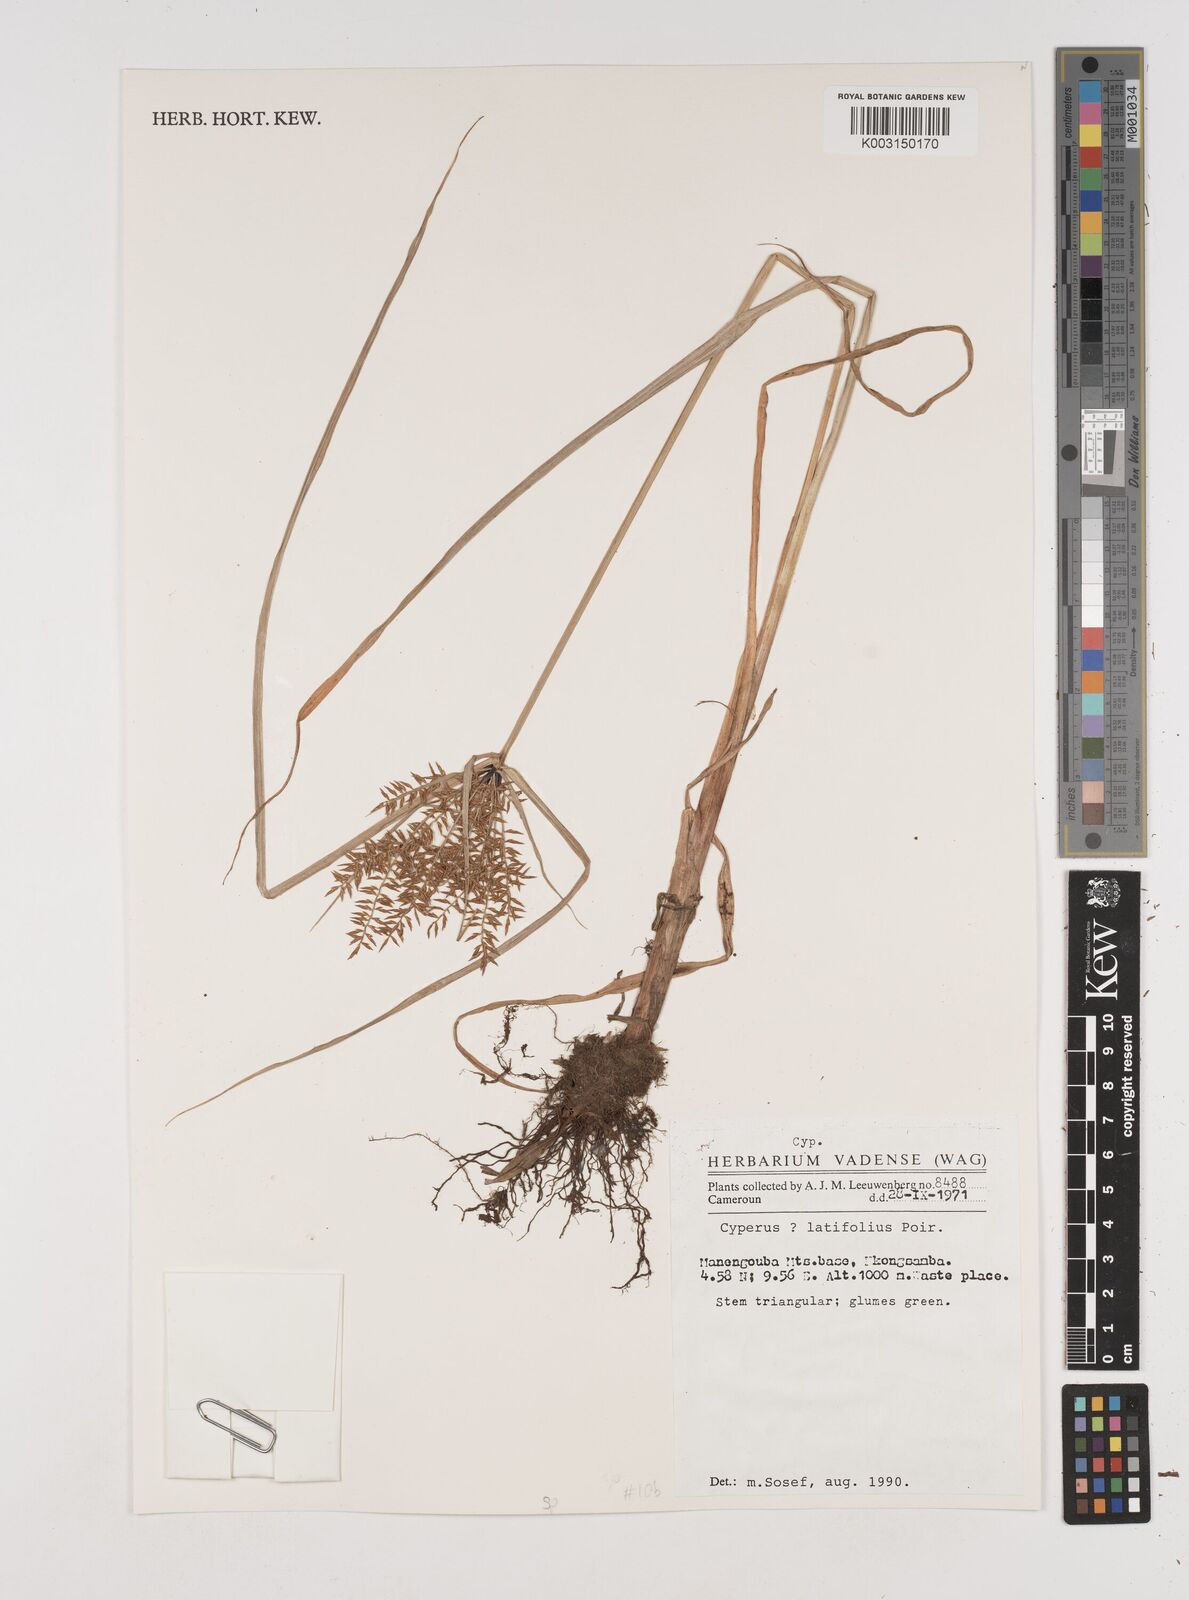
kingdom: Plantae
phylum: Tracheophyta
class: Liliopsida
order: Poales
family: Cyperaceae
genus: Cyperus
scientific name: Cyperus
